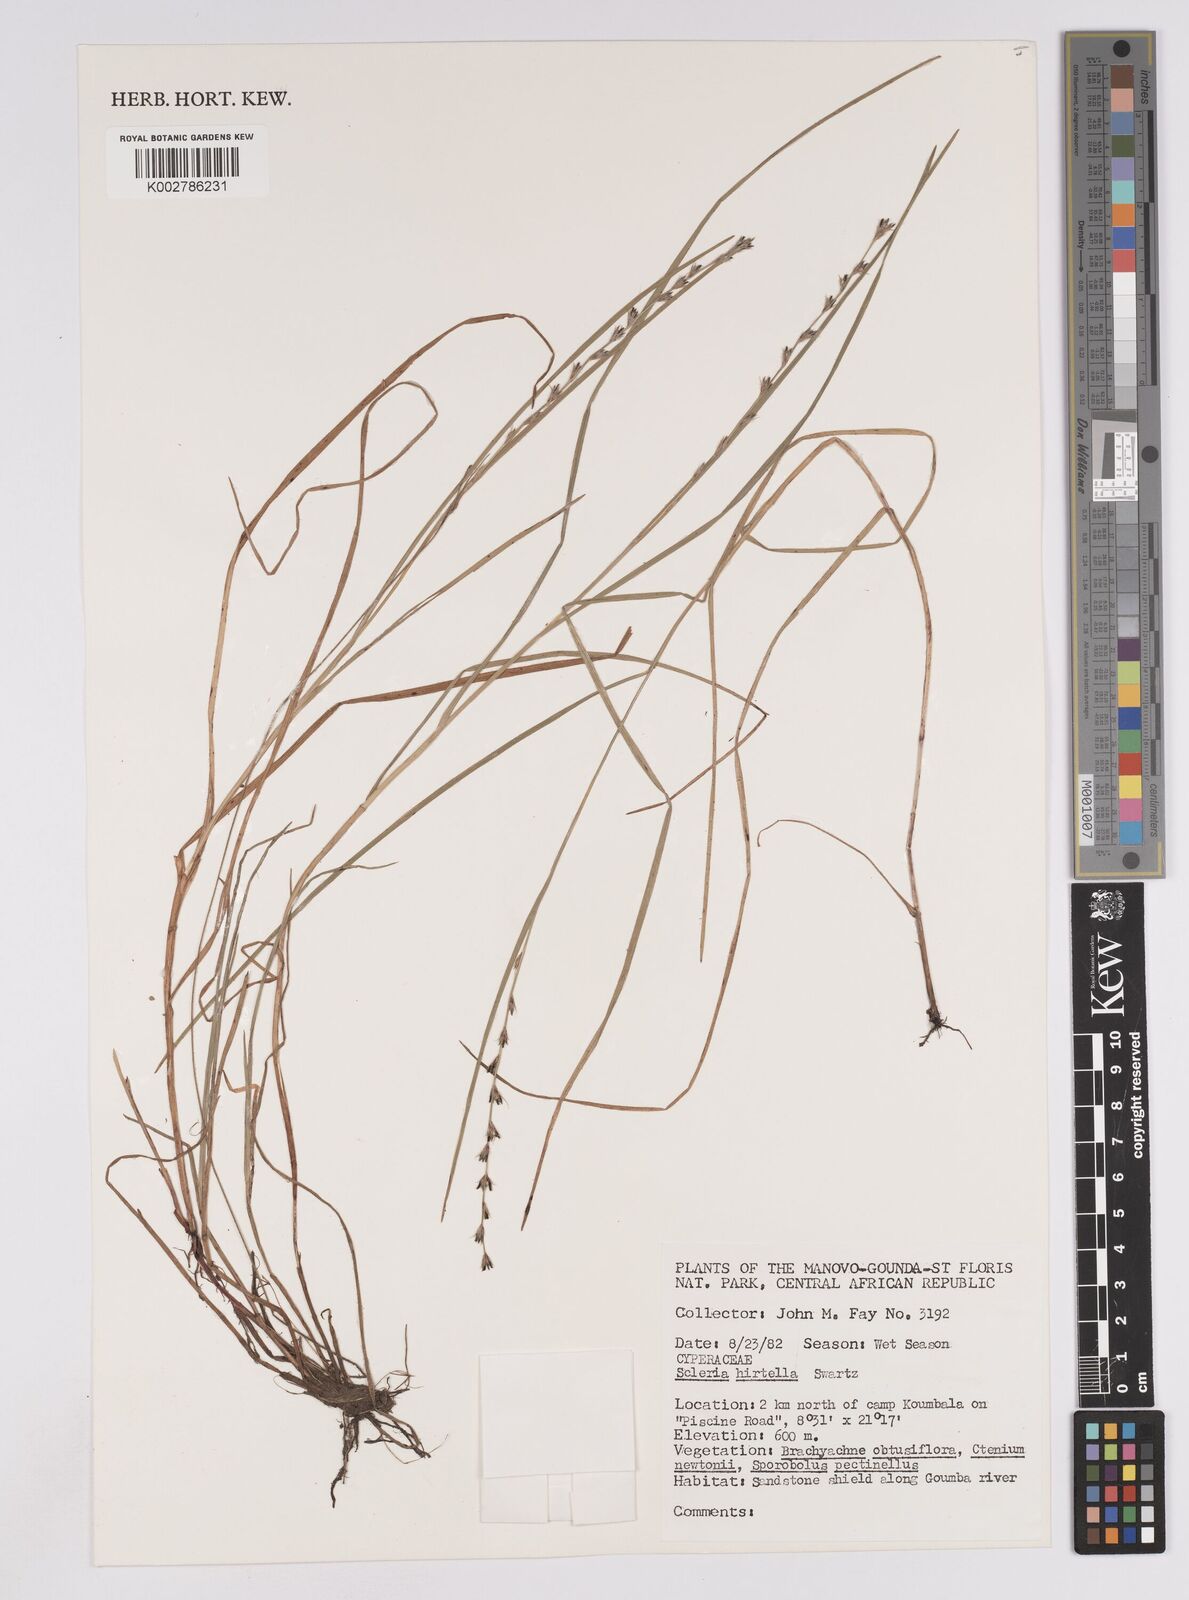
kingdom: Plantae
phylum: Tracheophyta
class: Liliopsida
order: Poales
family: Cyperaceae
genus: Scleria
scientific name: Scleria hirtella
